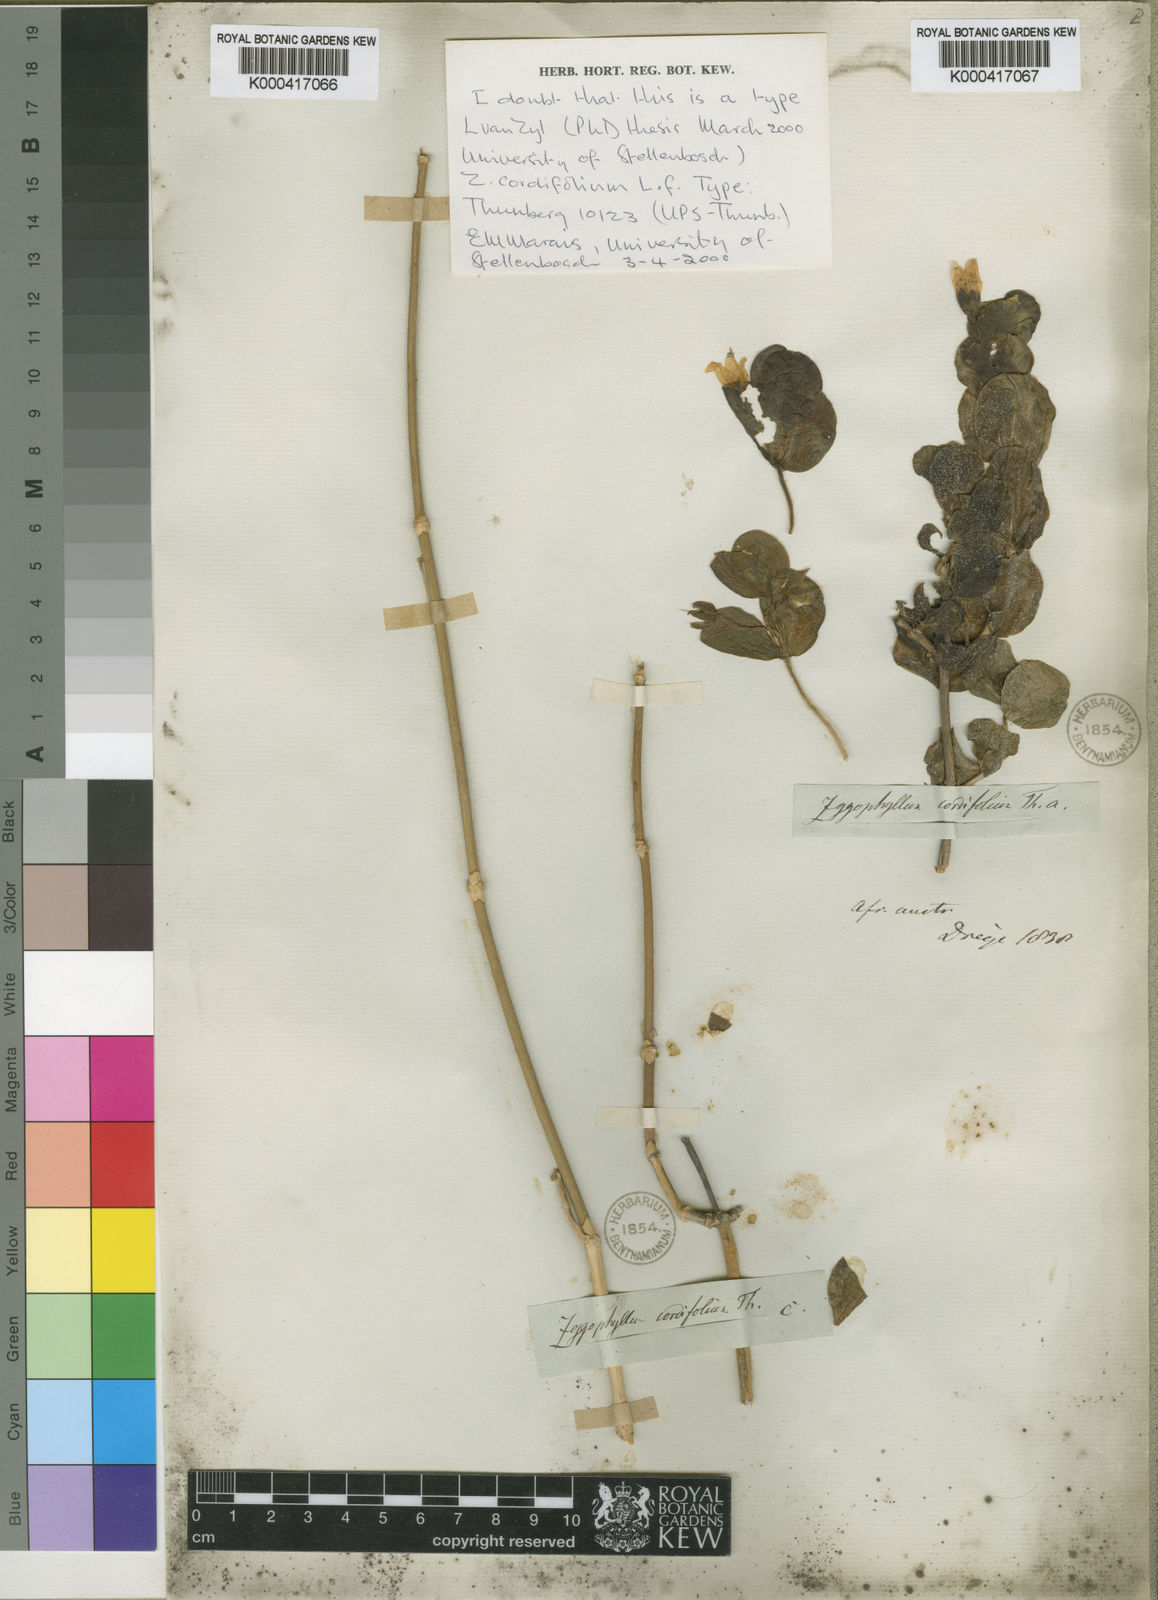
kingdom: Plantae
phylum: Tracheophyta
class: Magnoliopsida
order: Zygophyllales
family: Zygophyllaceae
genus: Roepera
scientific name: Roepera cordifolia
